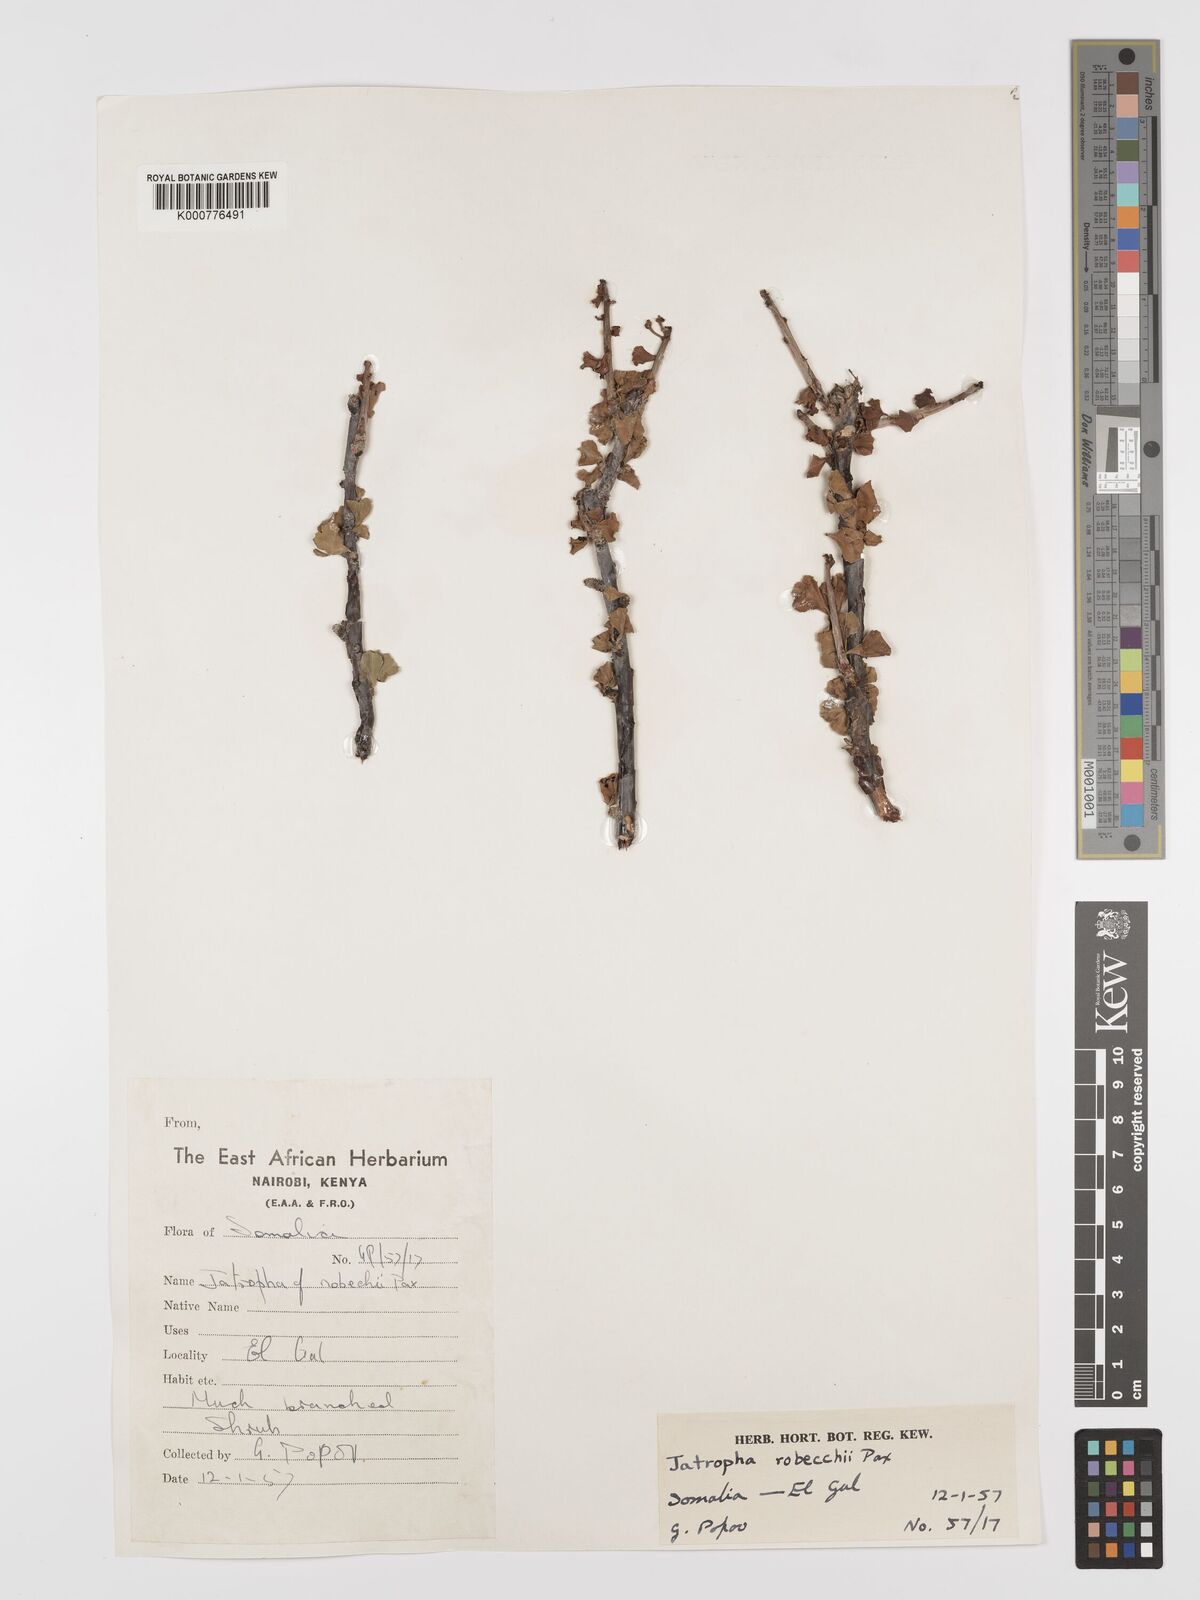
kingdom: Plantae
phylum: Tracheophyta
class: Magnoliopsida
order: Malpighiales
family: Euphorbiaceae
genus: Jatropha
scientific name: Jatropha robecchii
